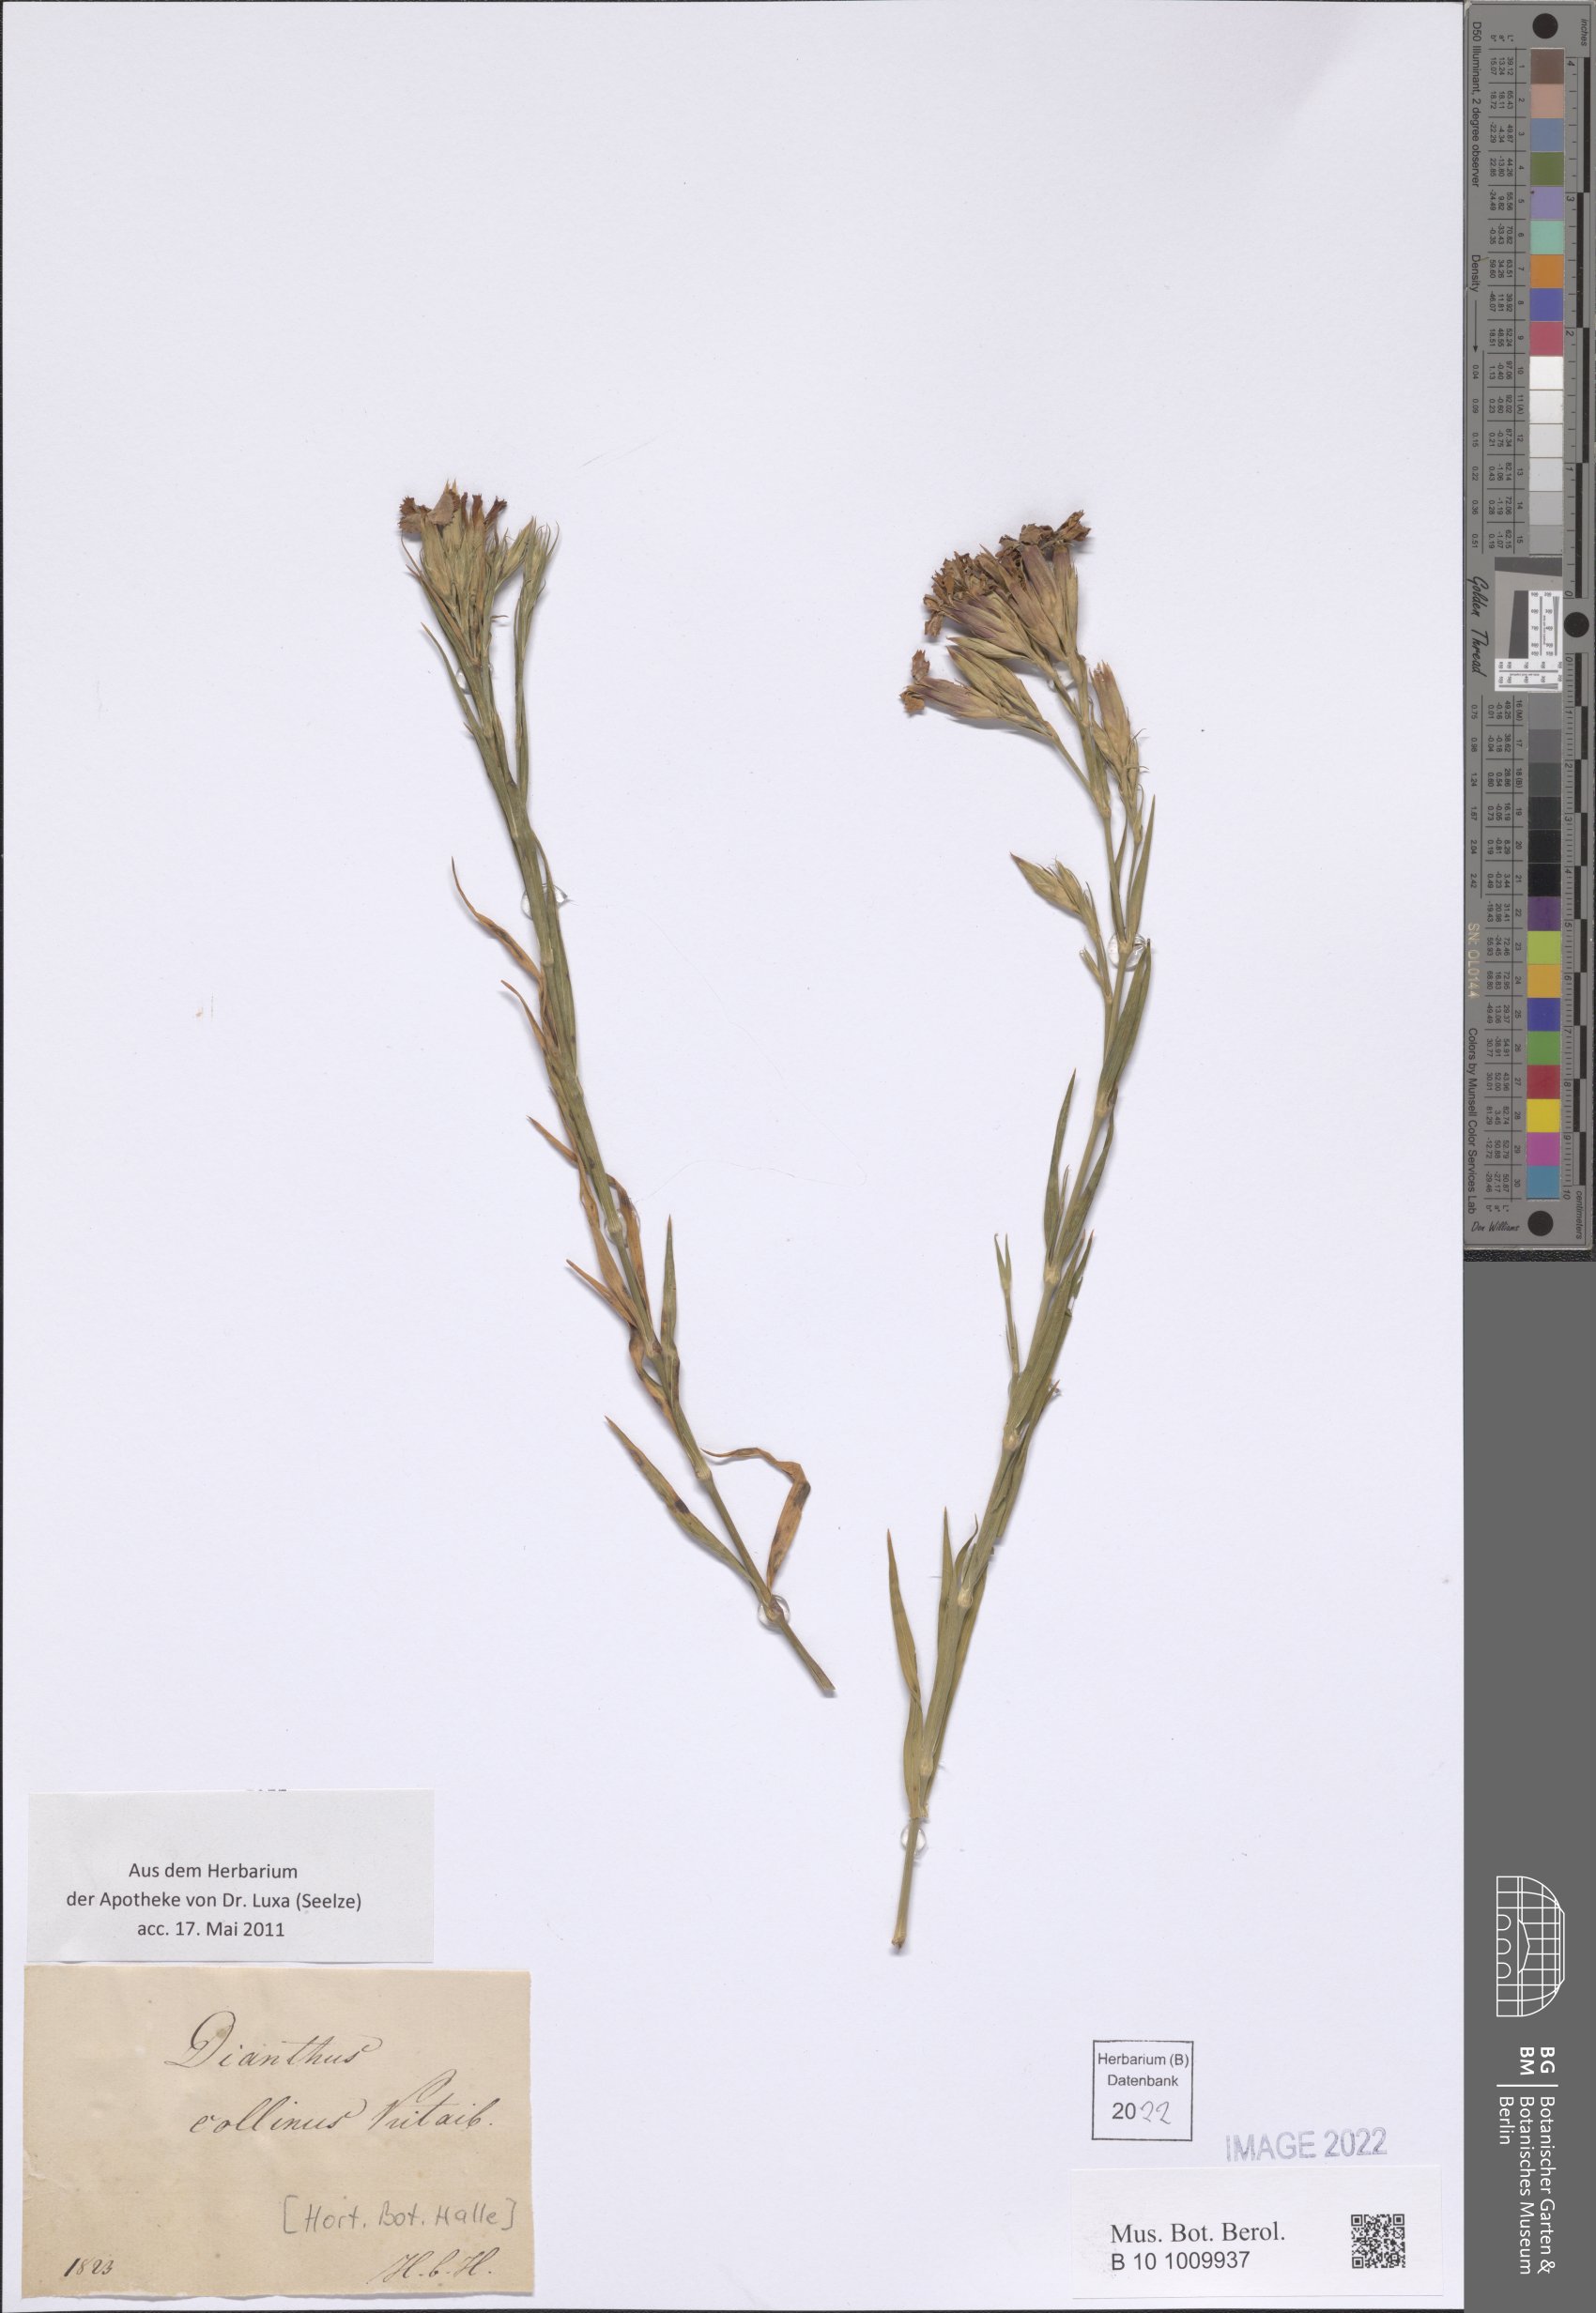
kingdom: Plantae
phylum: Tracheophyta
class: Magnoliopsida
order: Caryophyllales
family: Caryophyllaceae
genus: Dianthus
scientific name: Dianthus collinus
